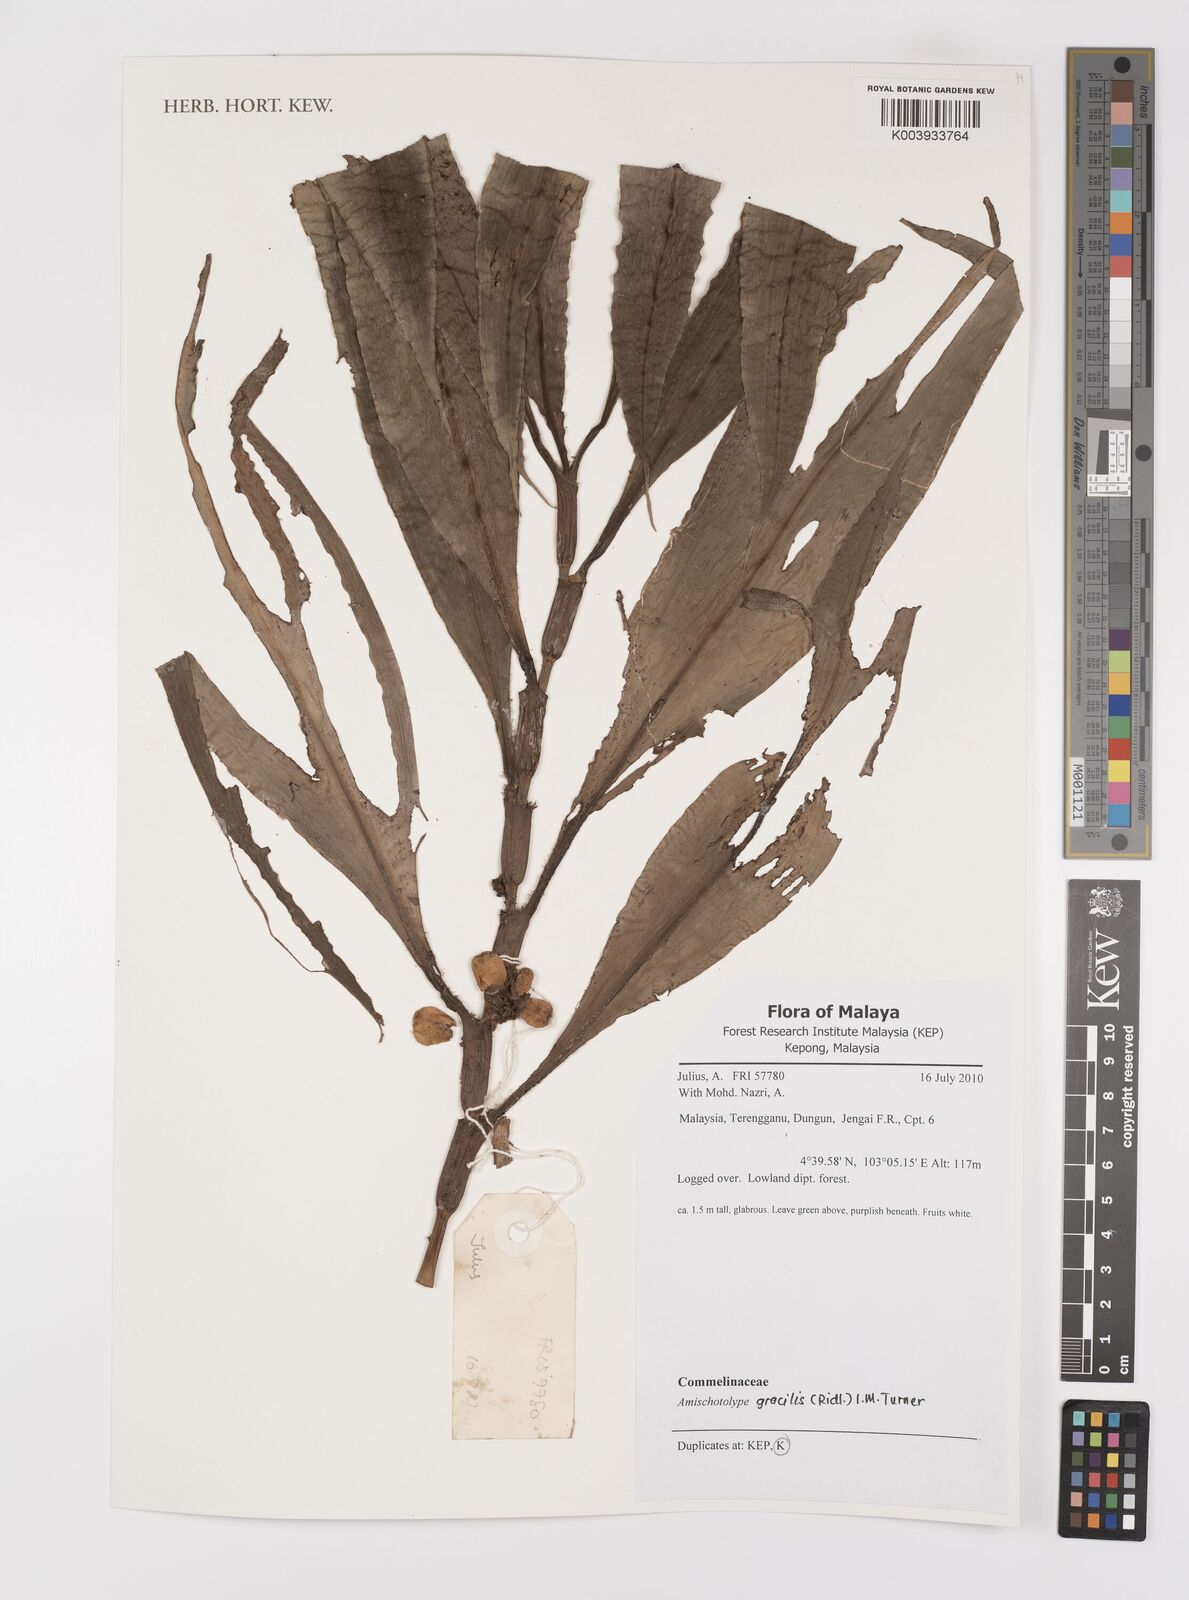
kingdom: Plantae
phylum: Tracheophyta
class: Liliopsida
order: Commelinales
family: Commelinaceae
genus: Amischotolype
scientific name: Amischotolype gracilis
